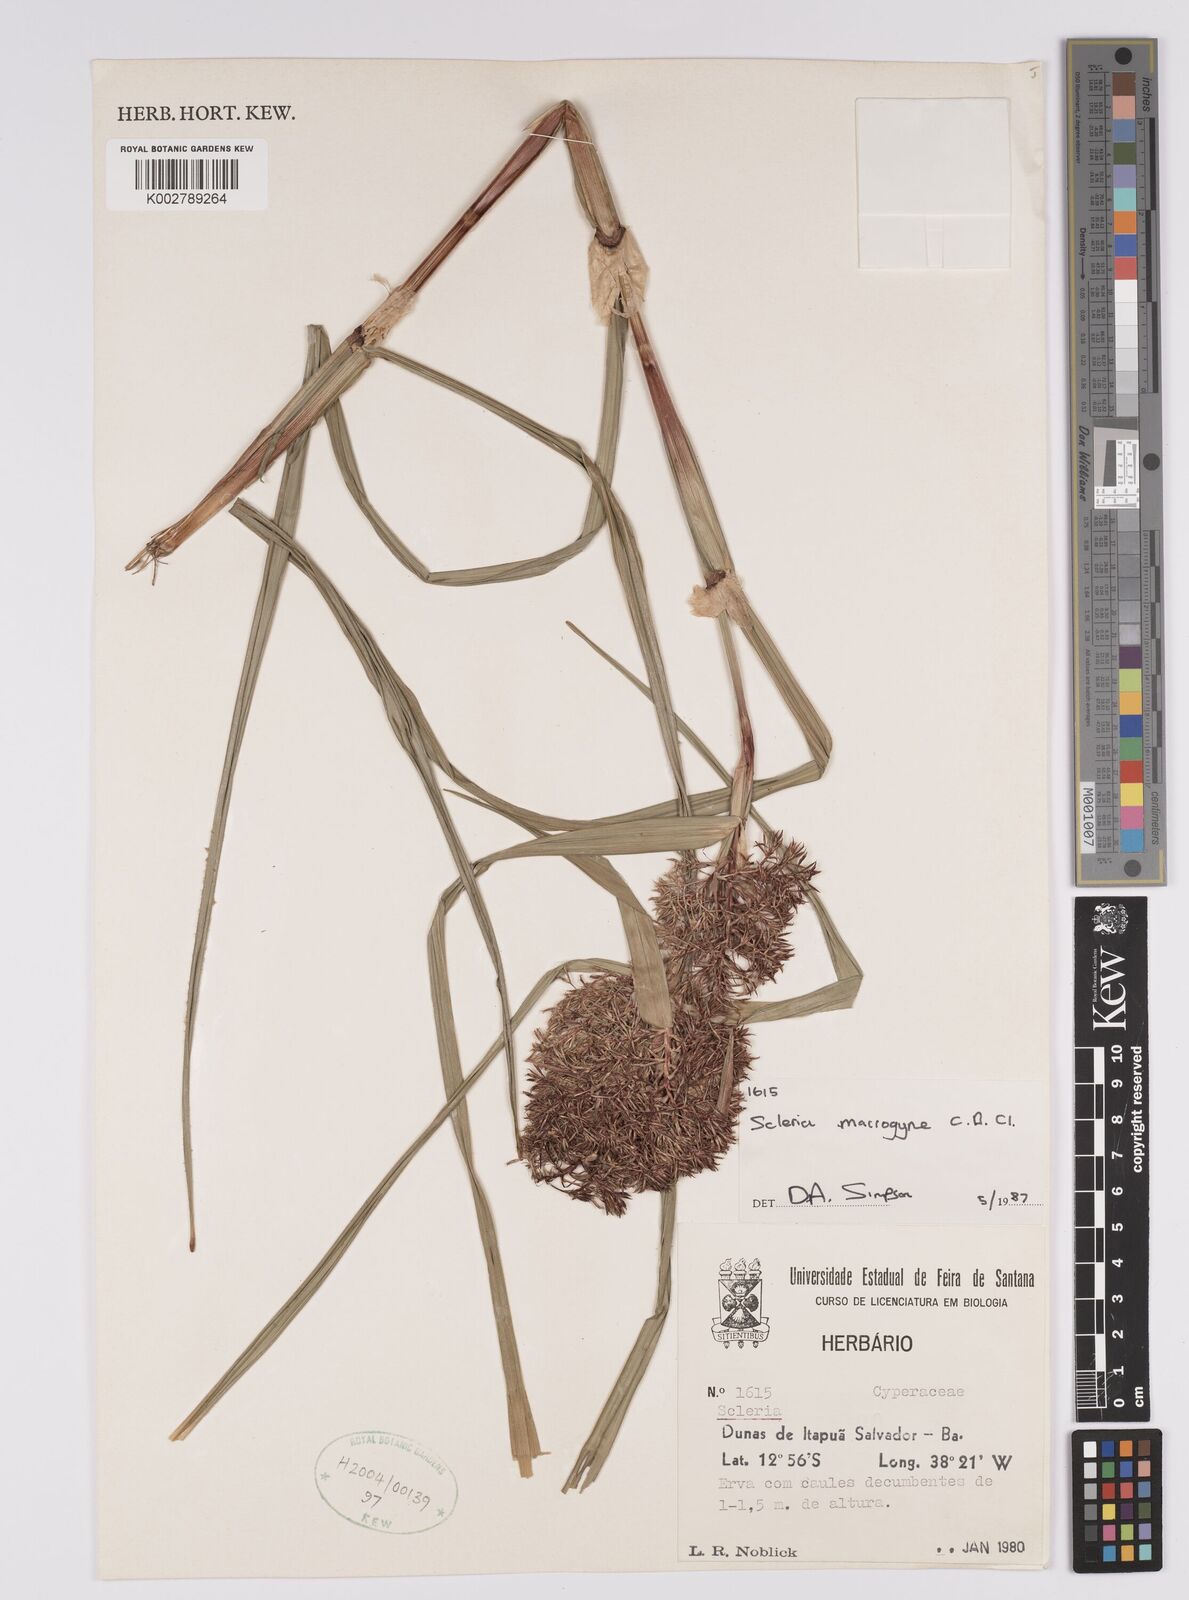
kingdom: Plantae
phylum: Tracheophyta
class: Liliopsida
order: Poales
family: Cyperaceae
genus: Scleria
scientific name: Scleria macrogyne
